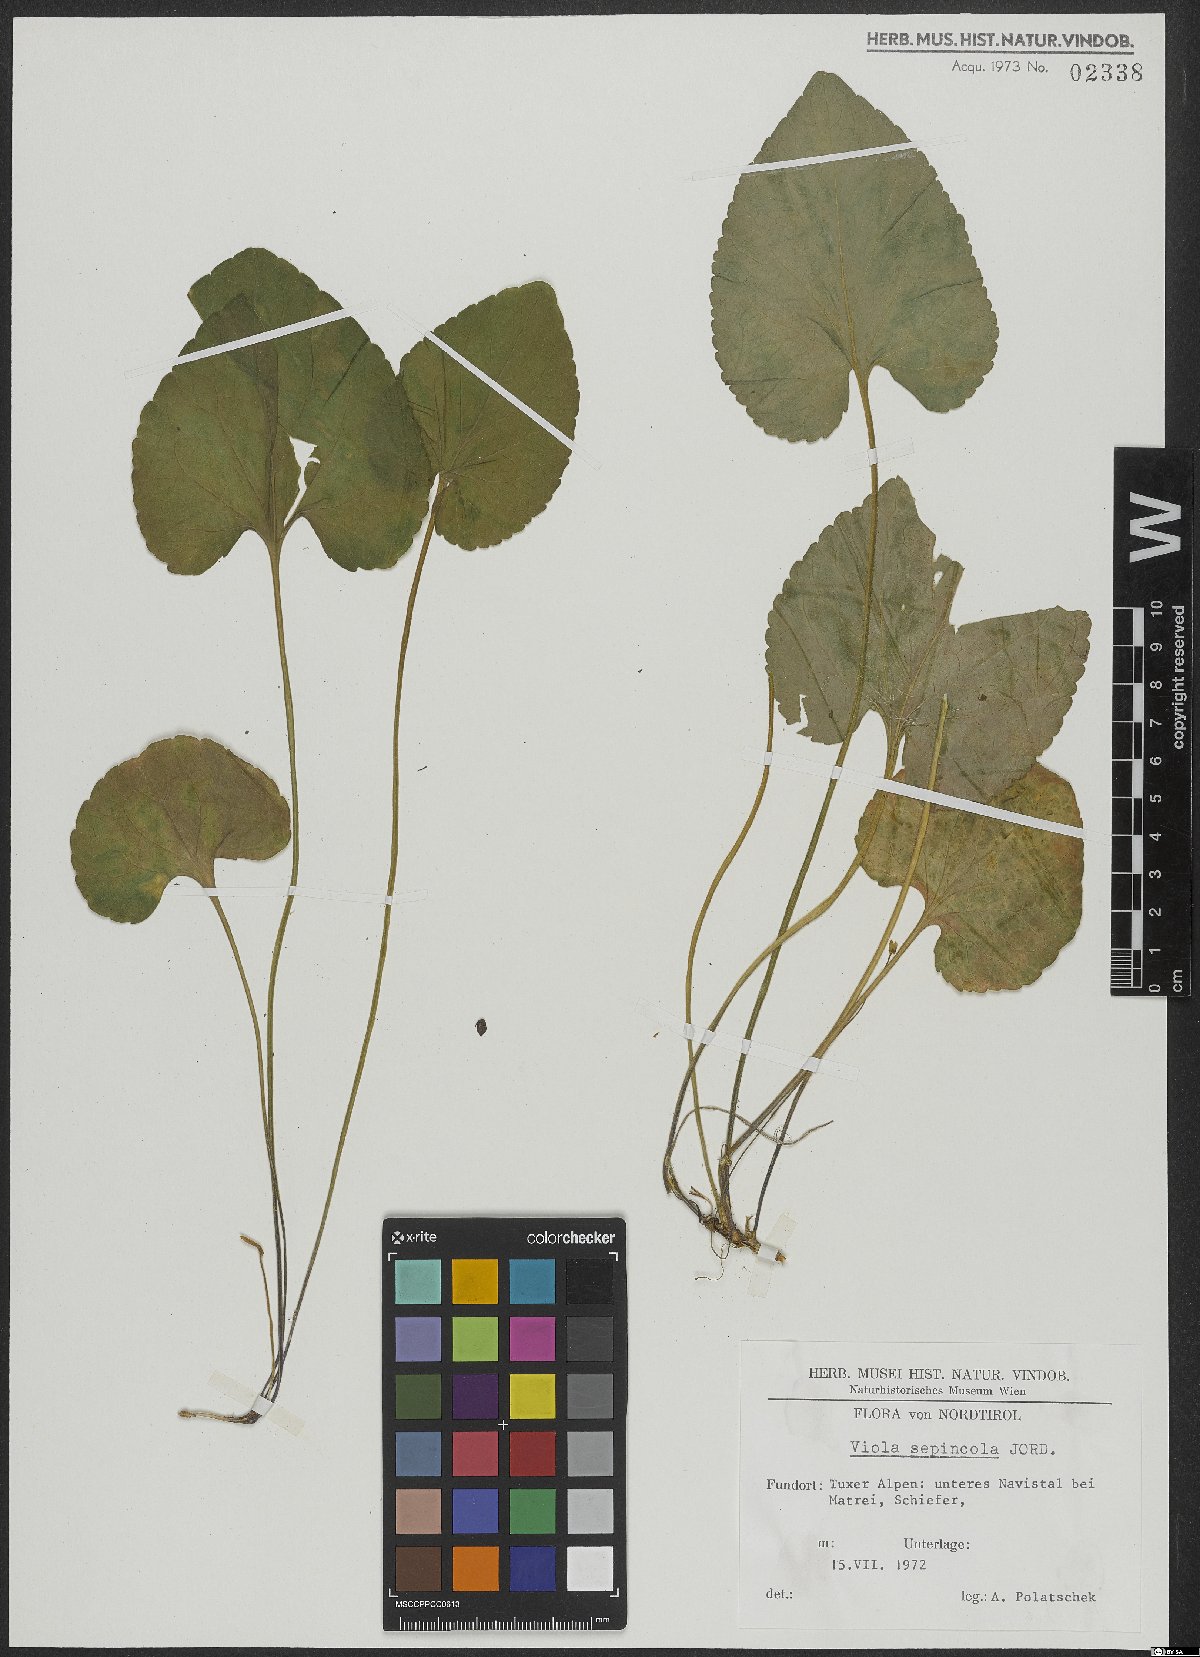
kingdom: Plantae
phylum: Tracheophyta
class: Magnoliopsida
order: Malpighiales
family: Violaceae
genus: Viola
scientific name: Viola suavis
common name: Russian violet
